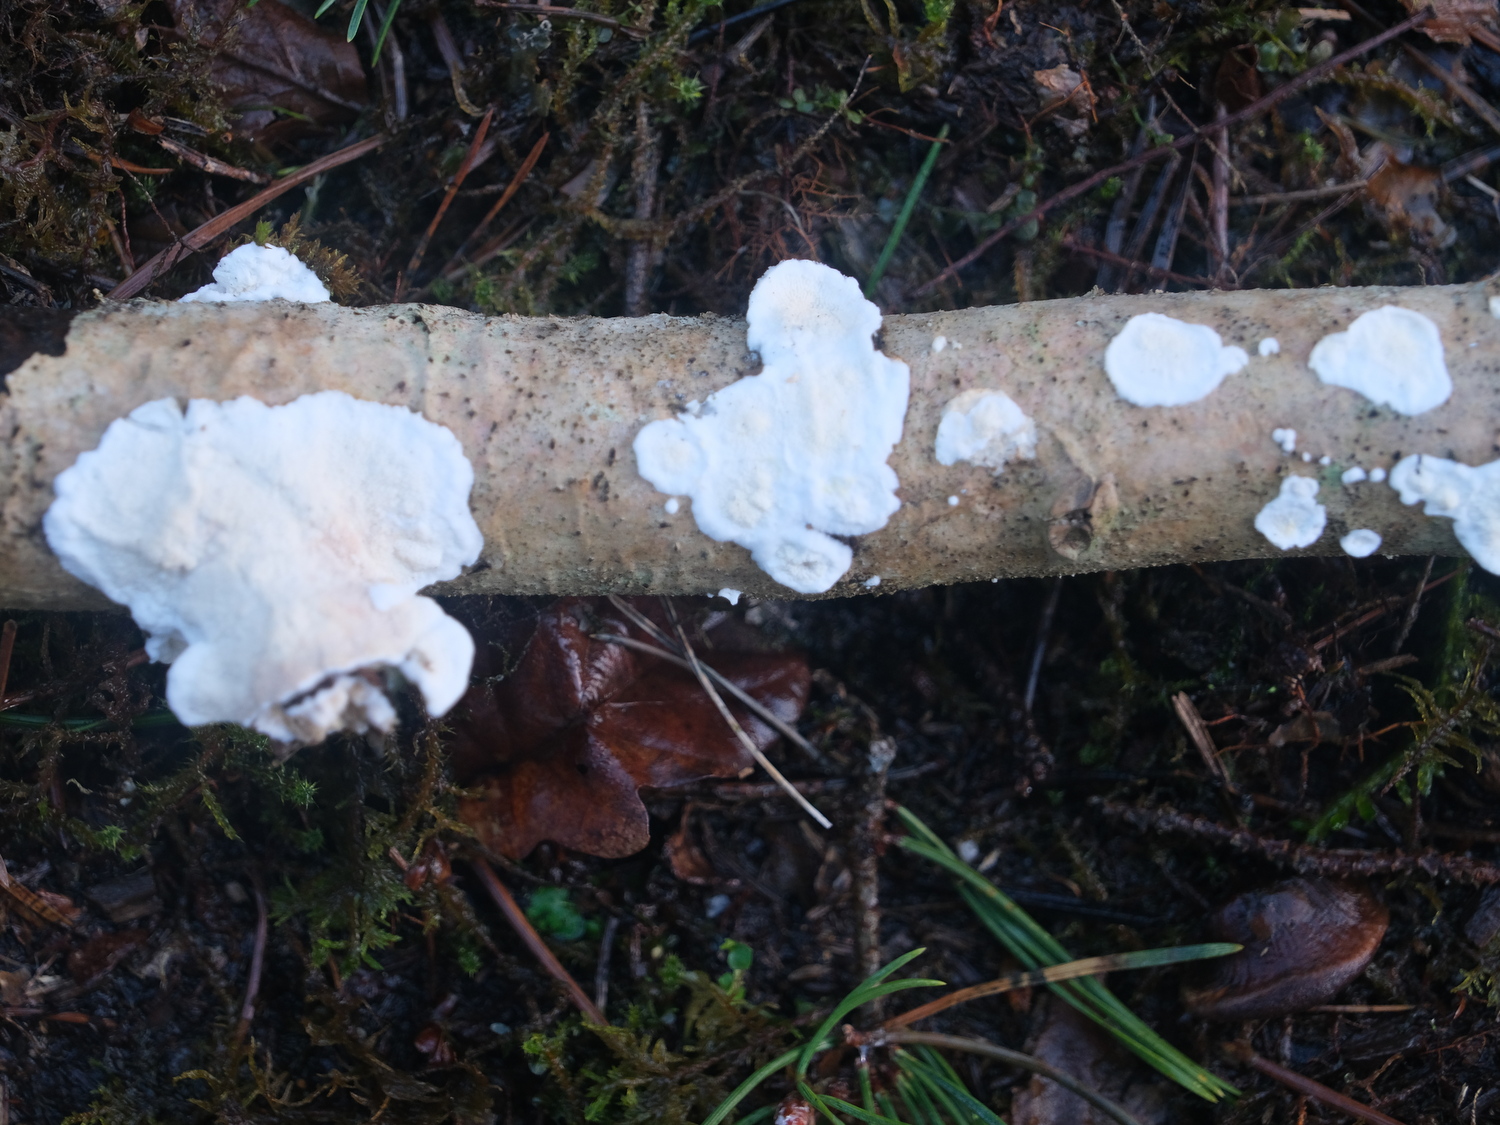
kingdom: Fungi
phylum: Basidiomycota
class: Agaricomycetes
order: Polyporales
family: Irpicaceae
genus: Byssomerulius
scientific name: Byssomerulius corium
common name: læder-åresvamp
